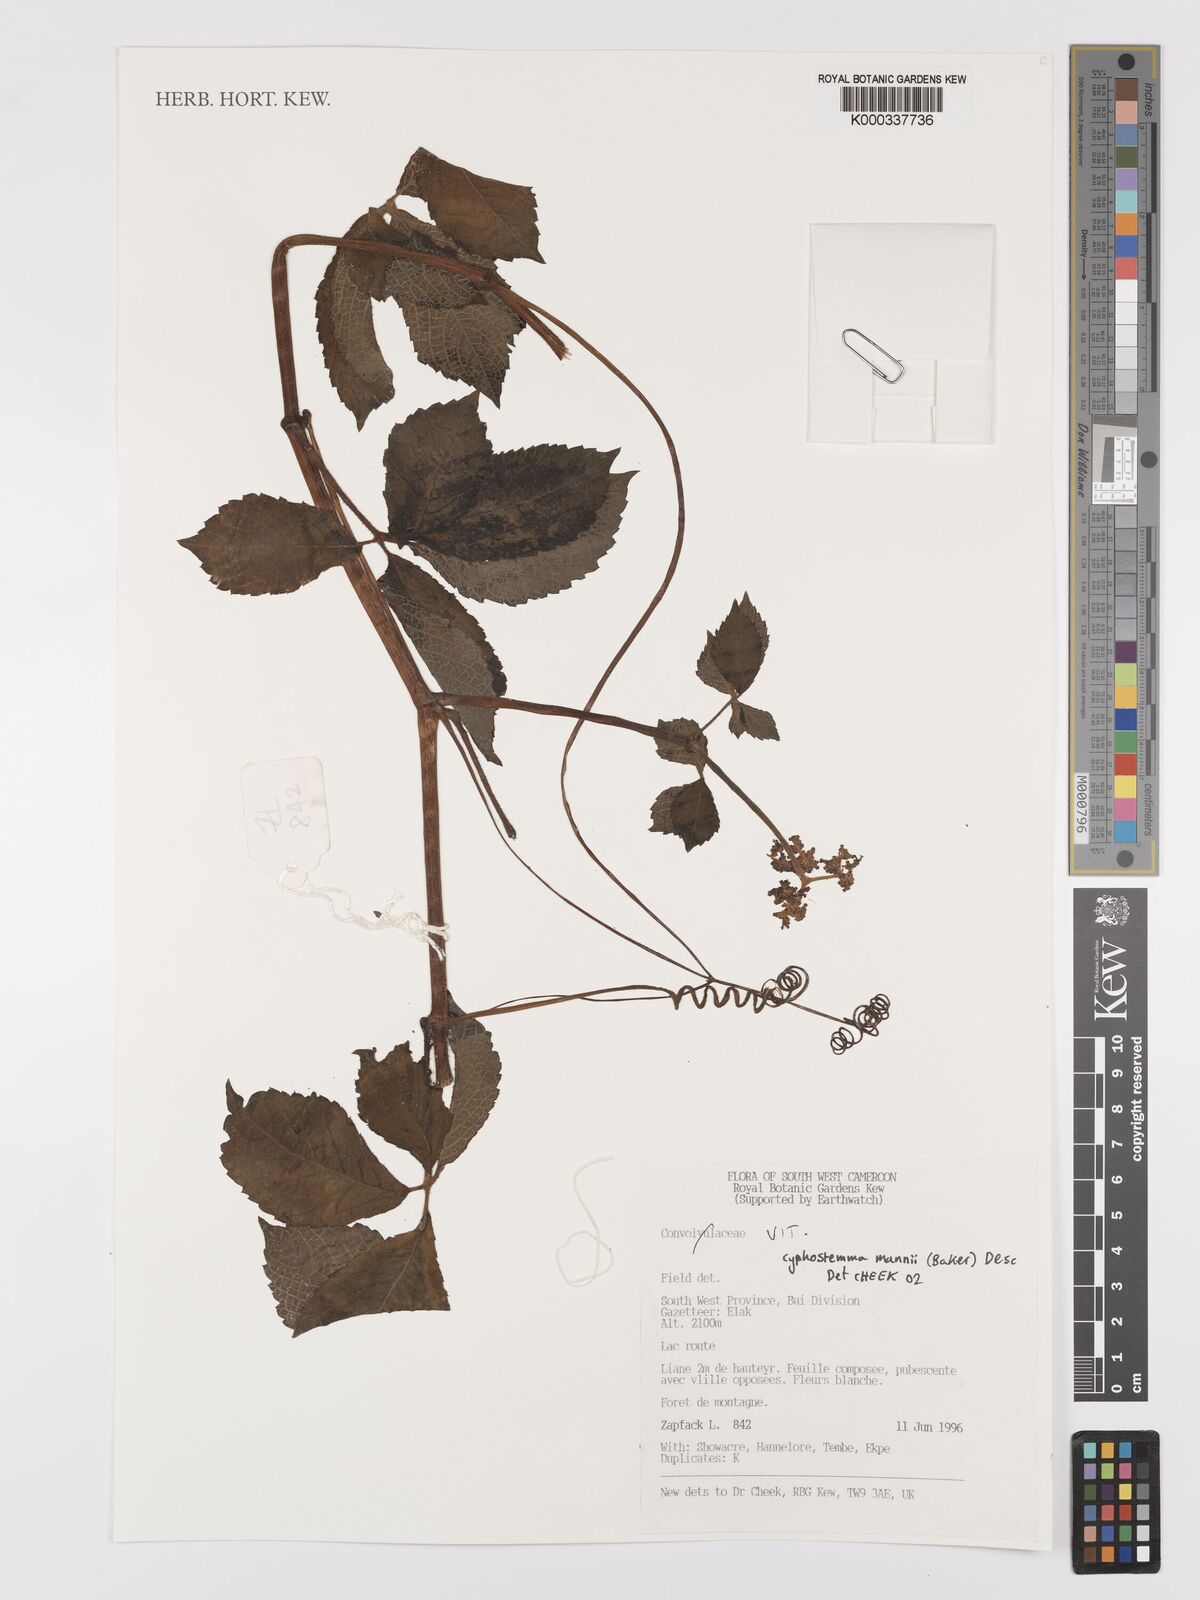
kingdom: Plantae
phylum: Tracheophyta
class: Magnoliopsida
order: Vitales
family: Vitaceae
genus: Cyphostemma
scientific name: Cyphostemma mannii
